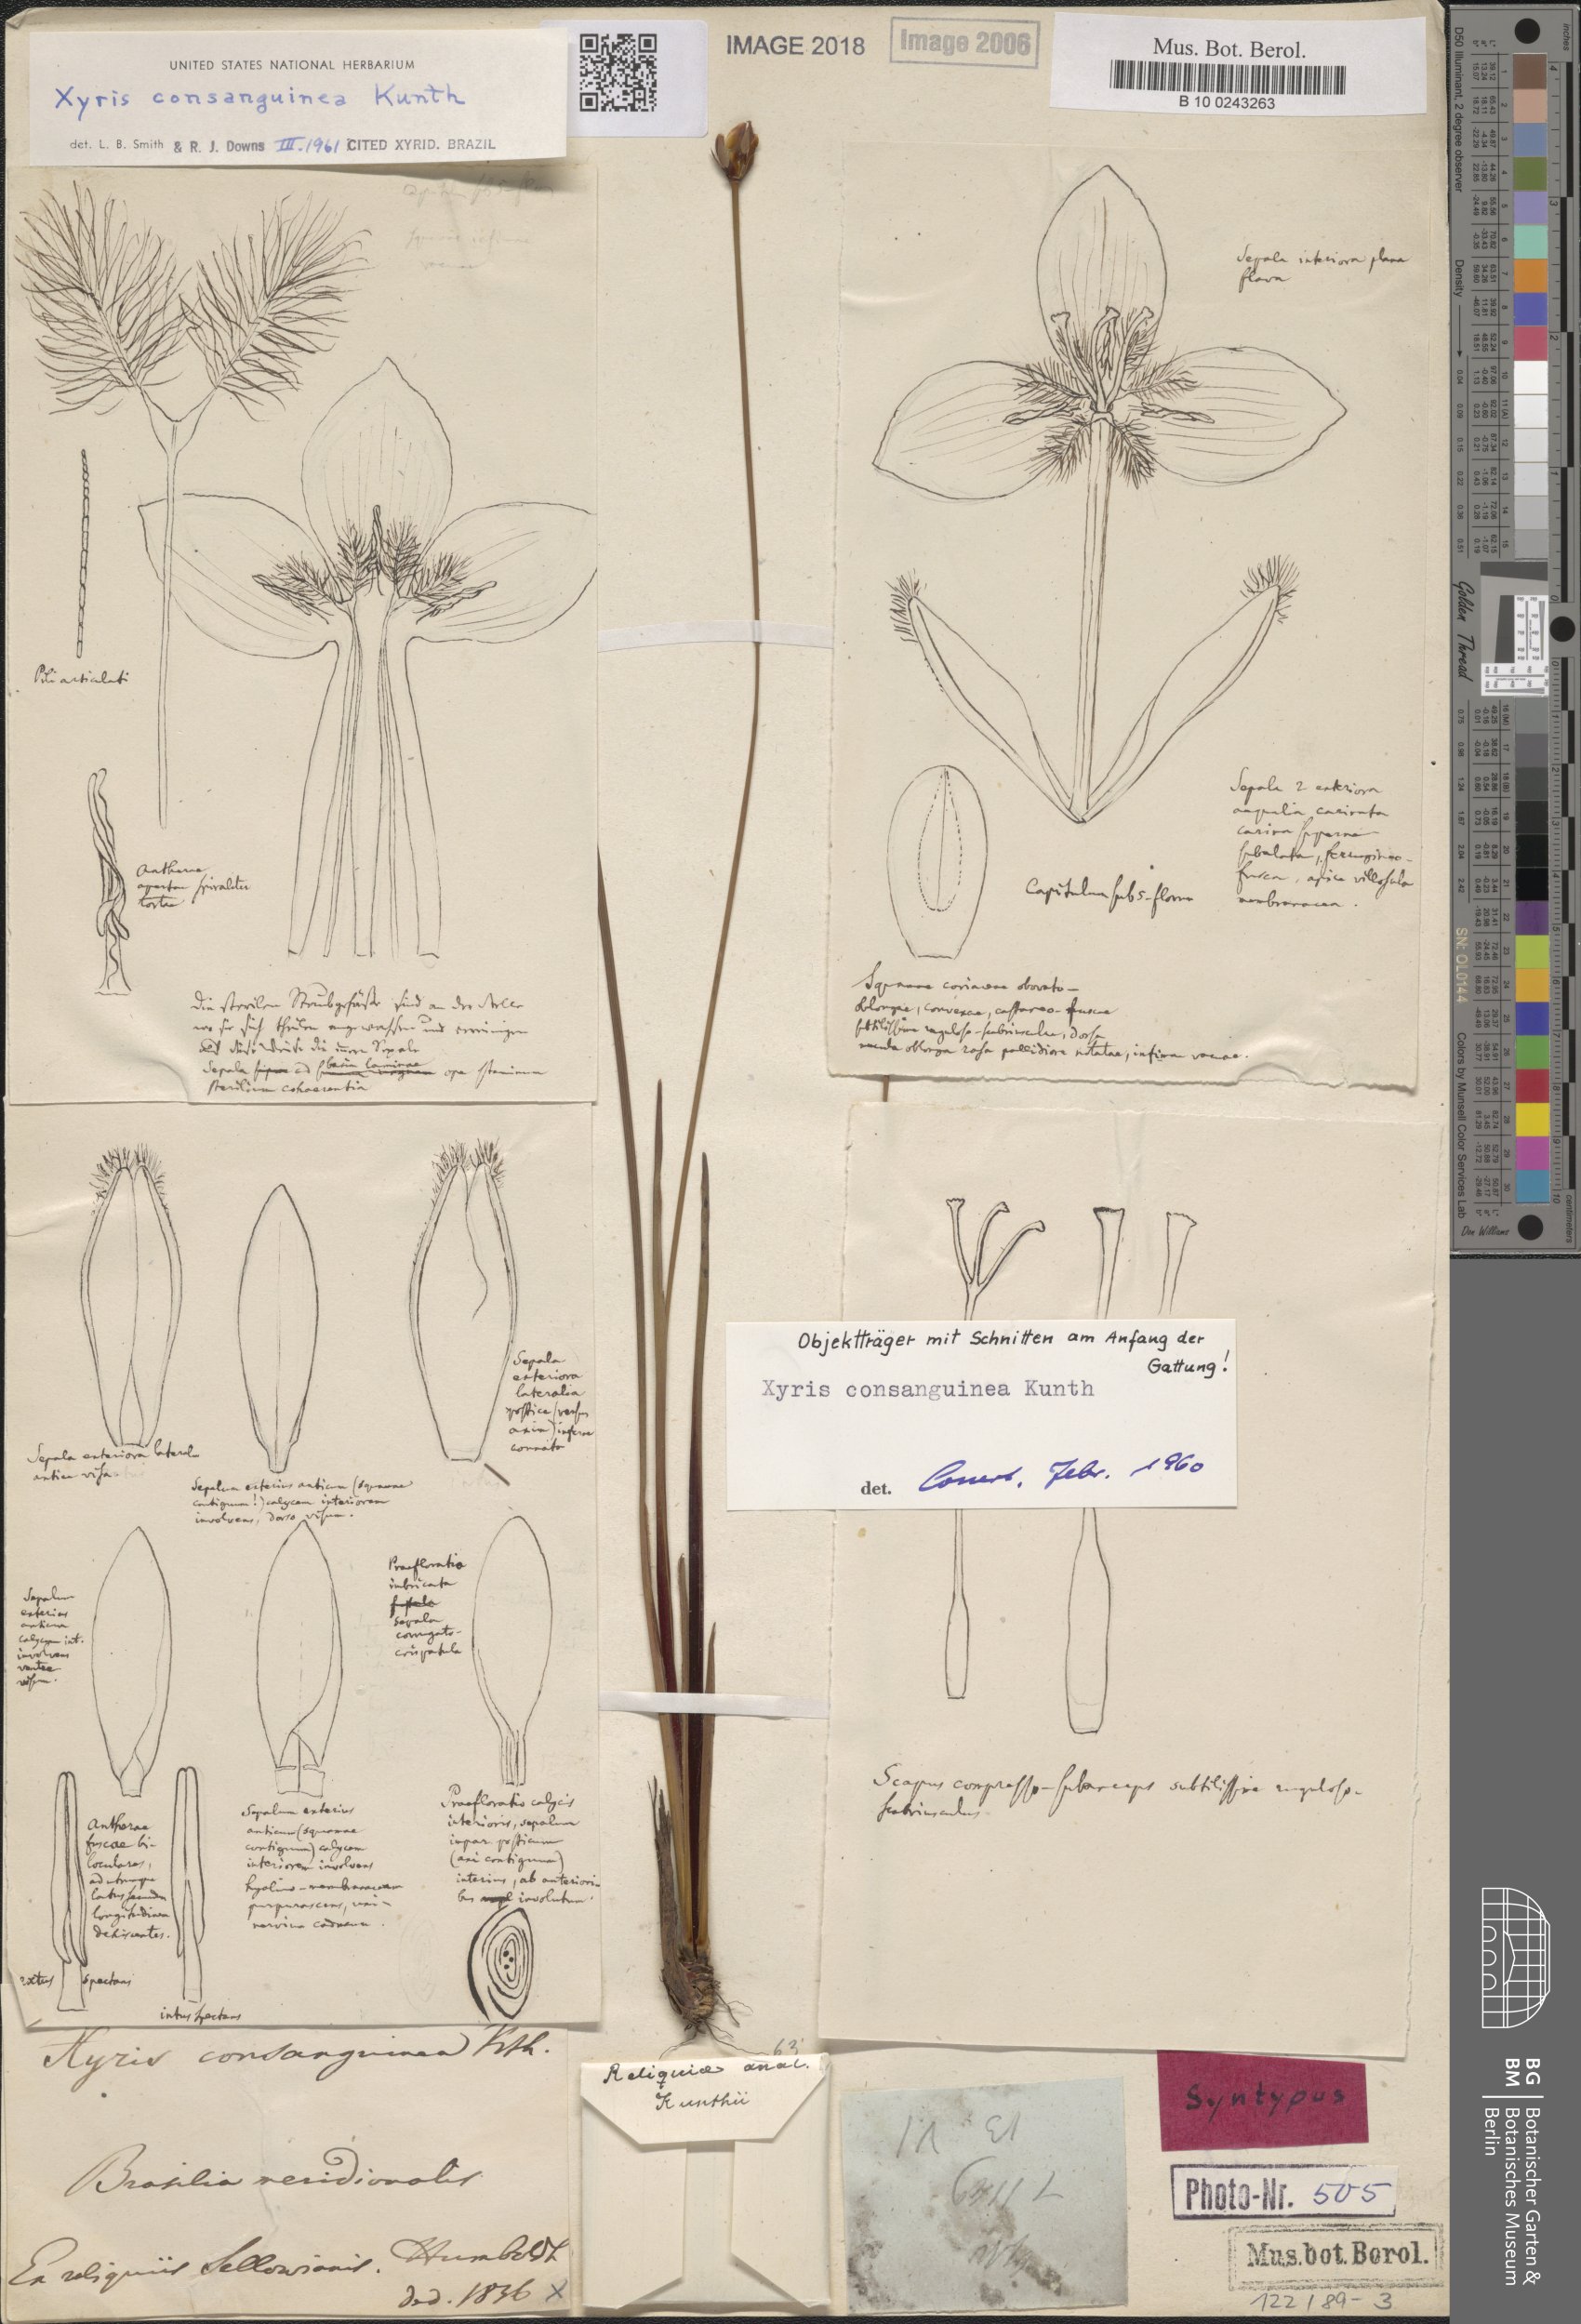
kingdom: Plantae
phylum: Tracheophyta
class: Liliopsida
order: Poales
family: Xyridaceae
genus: Xyris
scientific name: Xyris consanguinea
